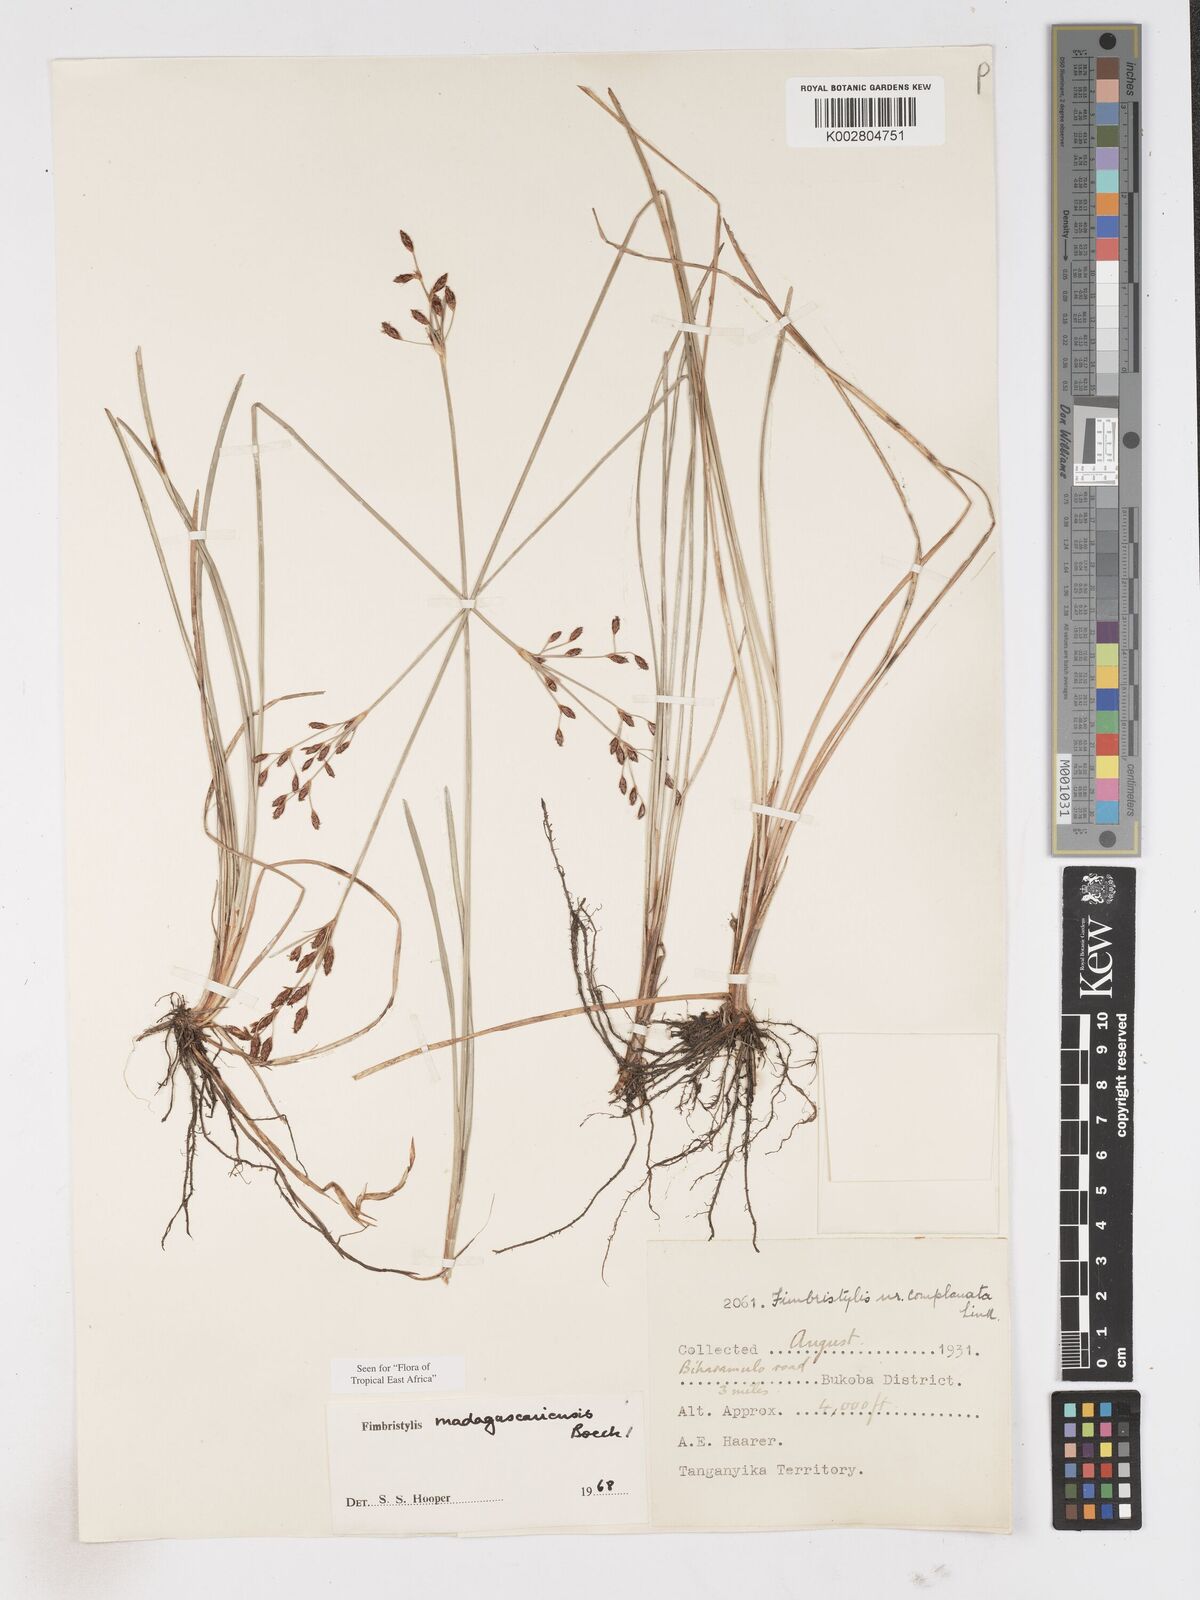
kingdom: Plantae
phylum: Tracheophyta
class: Liliopsida
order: Poales
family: Cyperaceae
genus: Fimbristylis
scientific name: Fimbristylis madagascariensis
